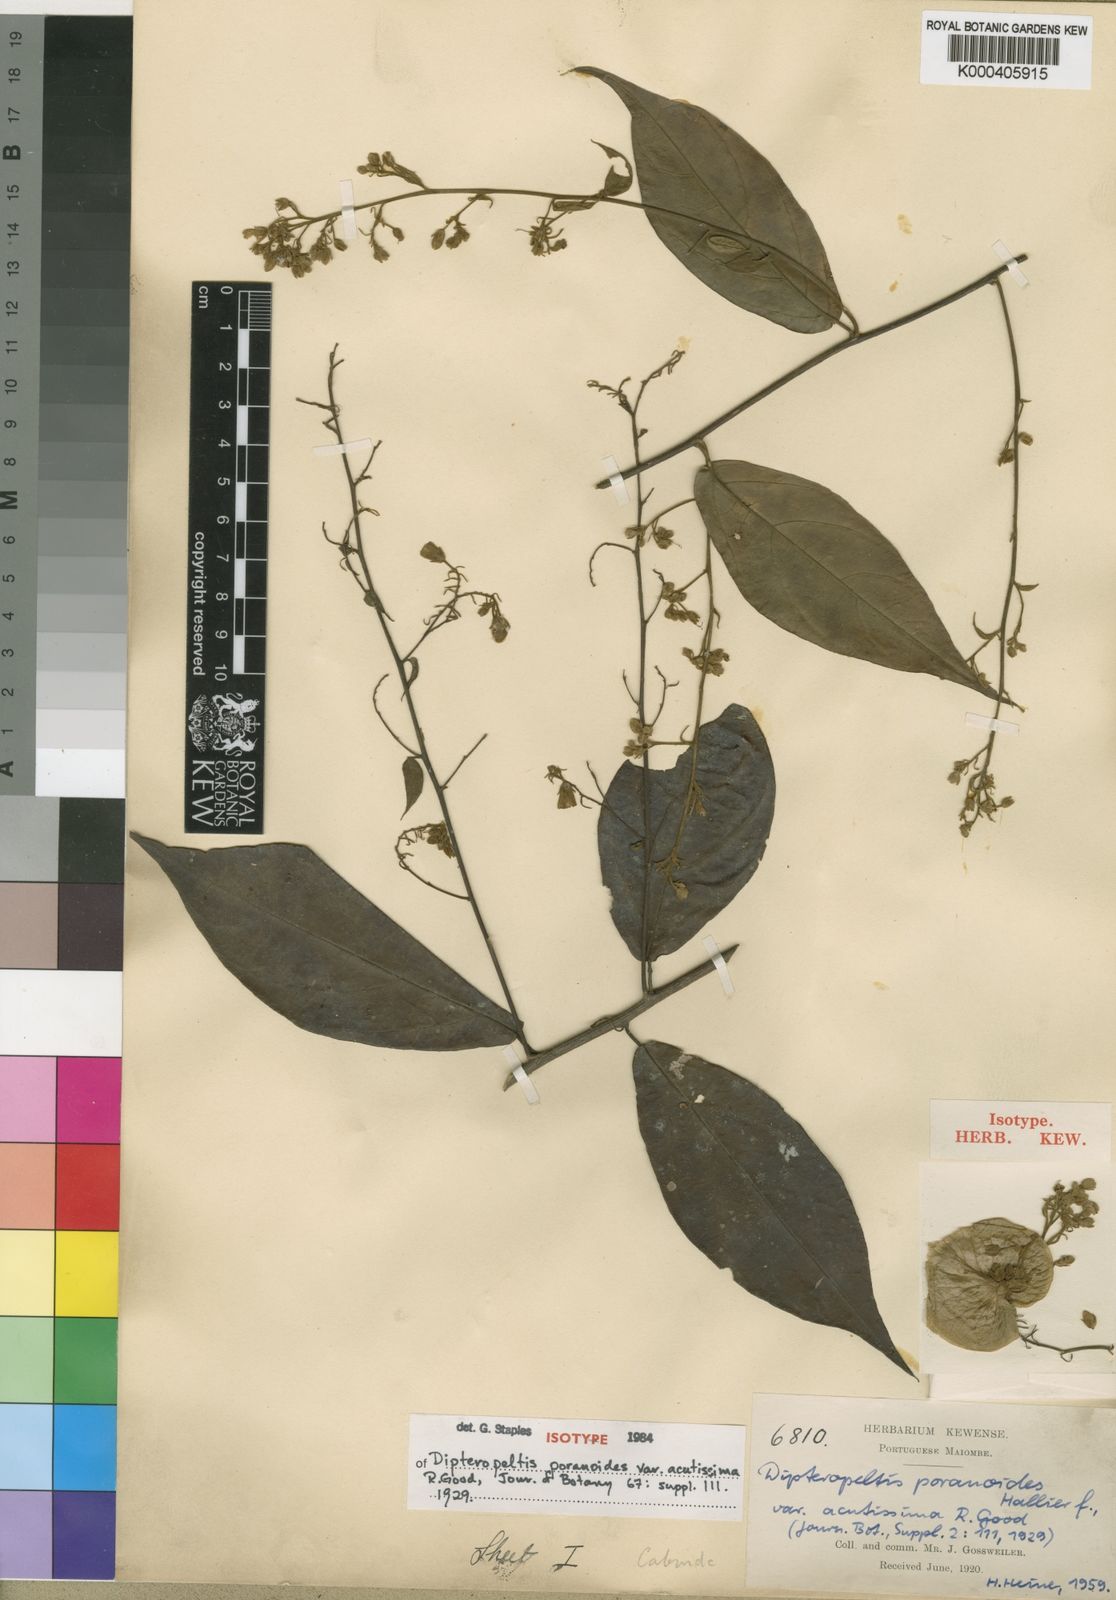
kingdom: Plantae
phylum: Tracheophyta
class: Magnoliopsida
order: Solanales
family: Convolvulaceae
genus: Dipteropeltis
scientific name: Dipteropeltis poranoides
